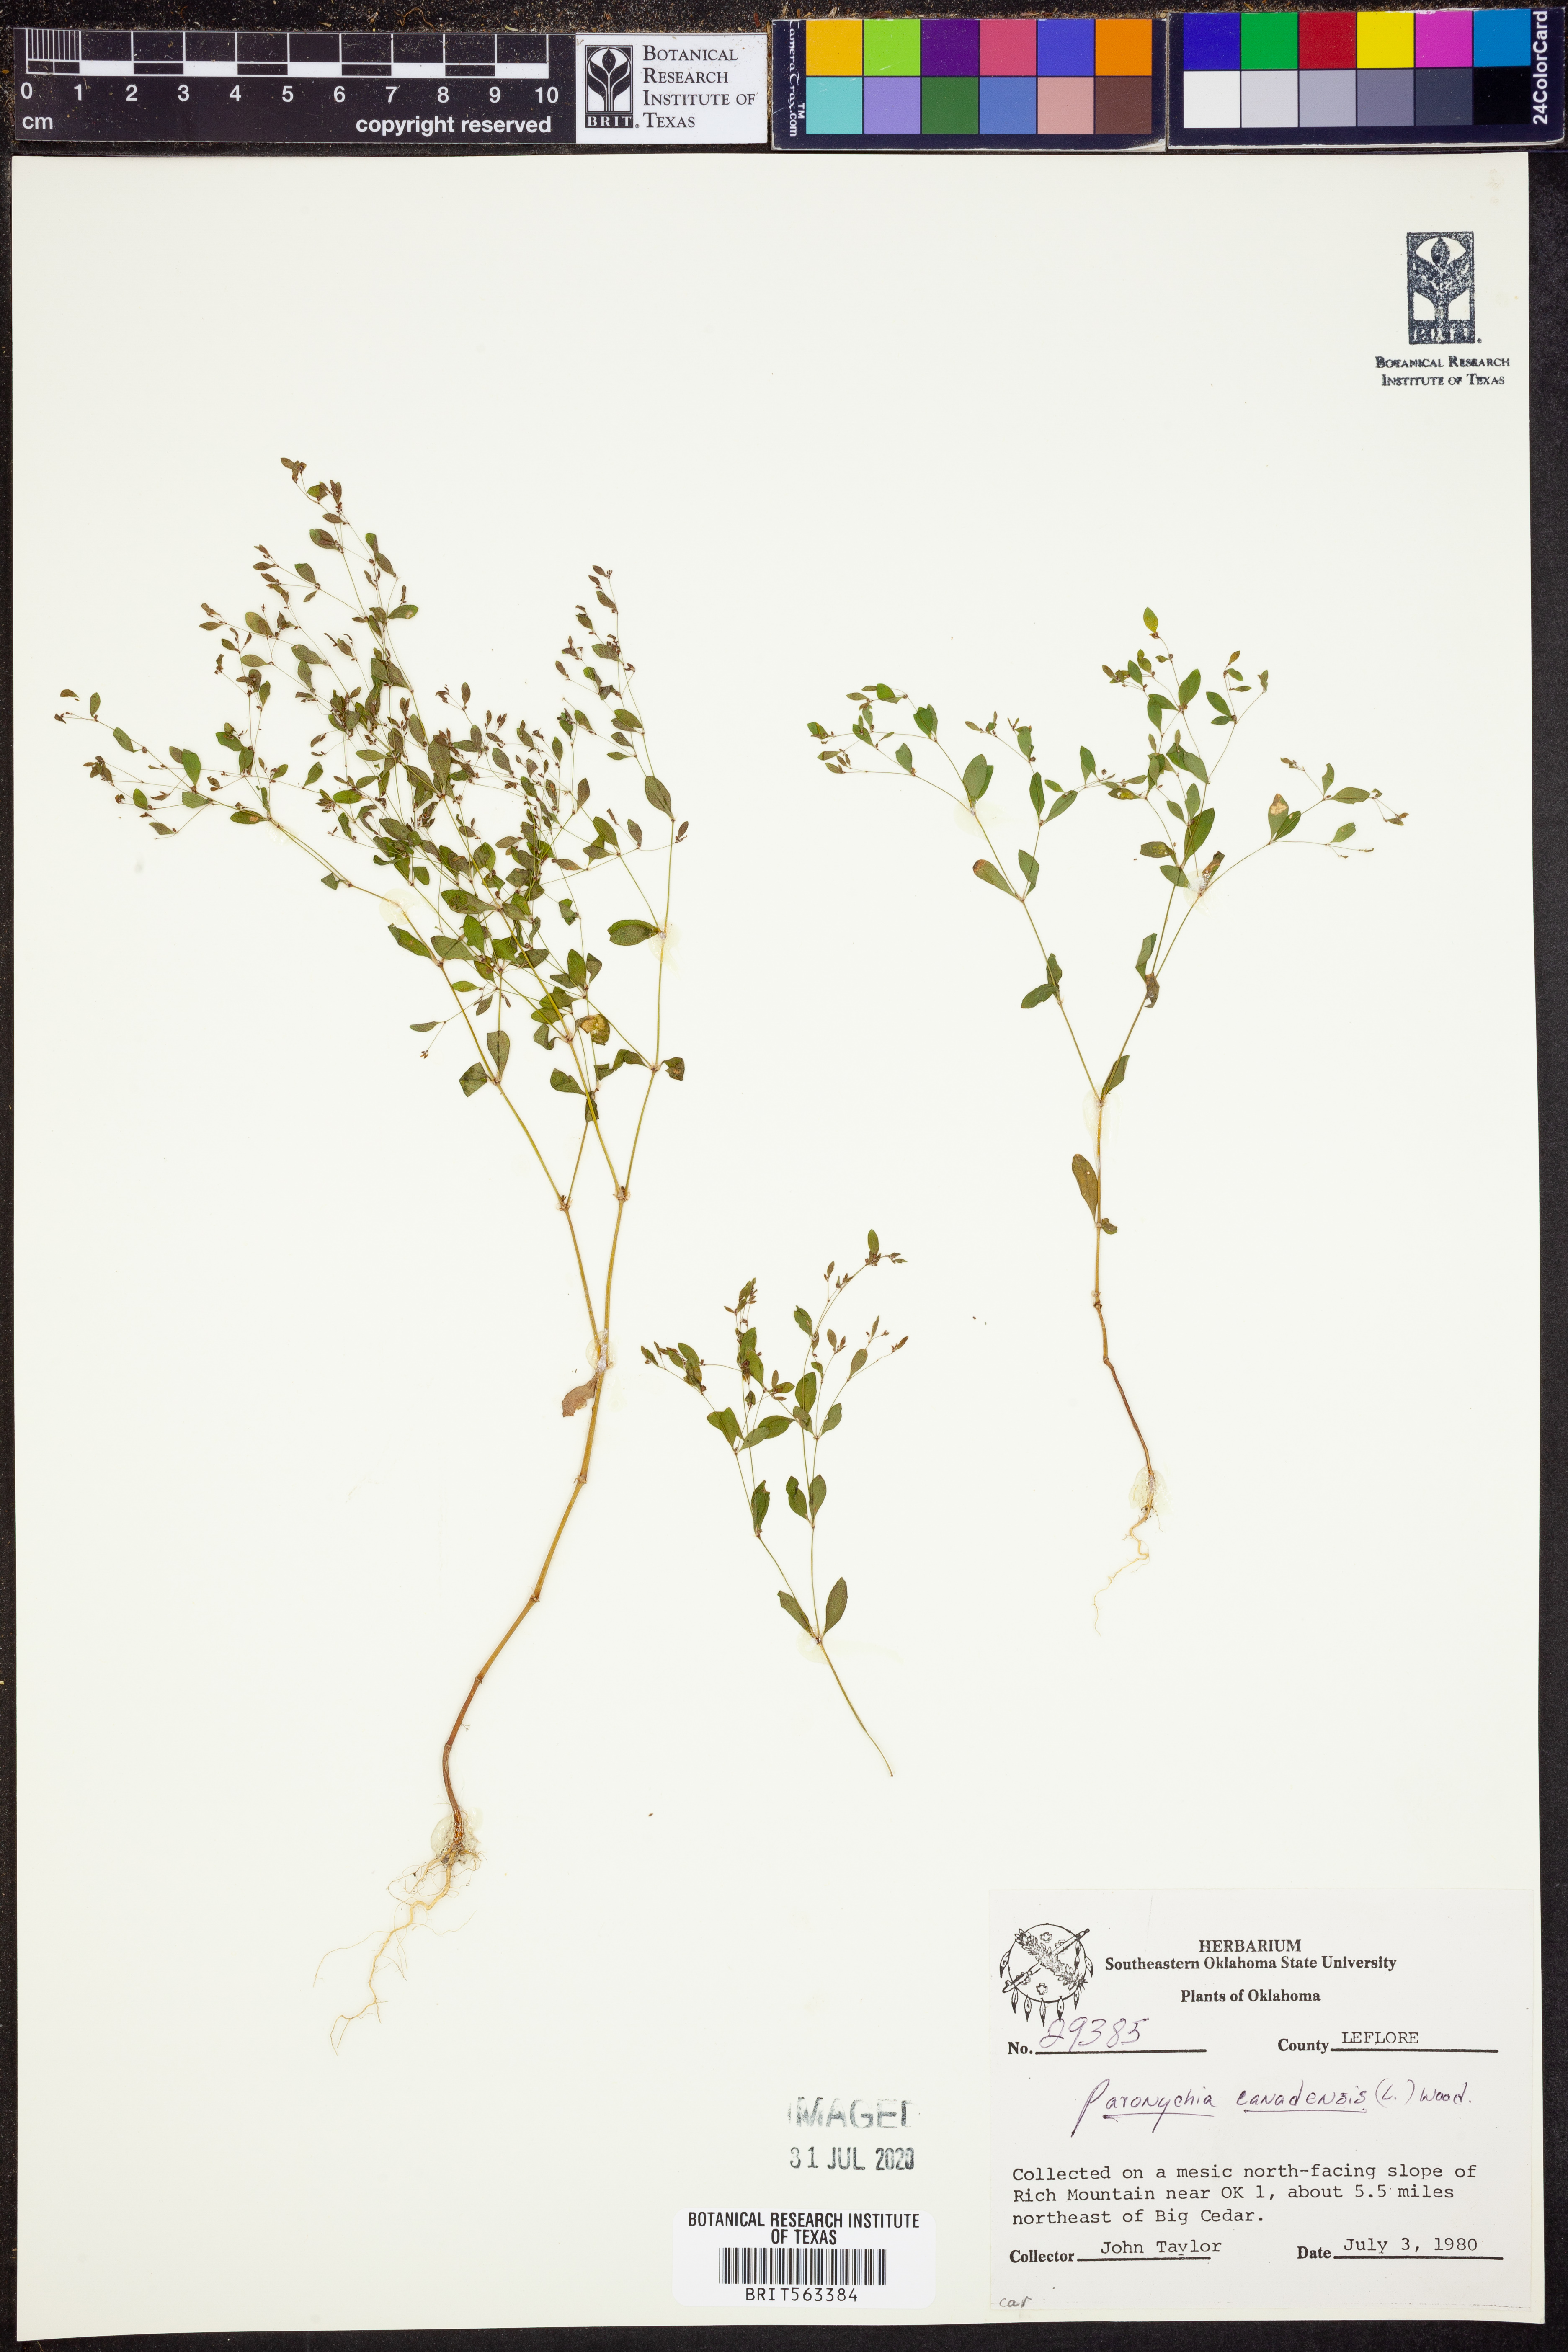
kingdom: Plantae
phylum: Tracheophyta
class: Magnoliopsida
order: Caryophyllales
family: Caryophyllaceae
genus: Paronychia
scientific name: Paronychia canadensis
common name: Canada forked nailwort
